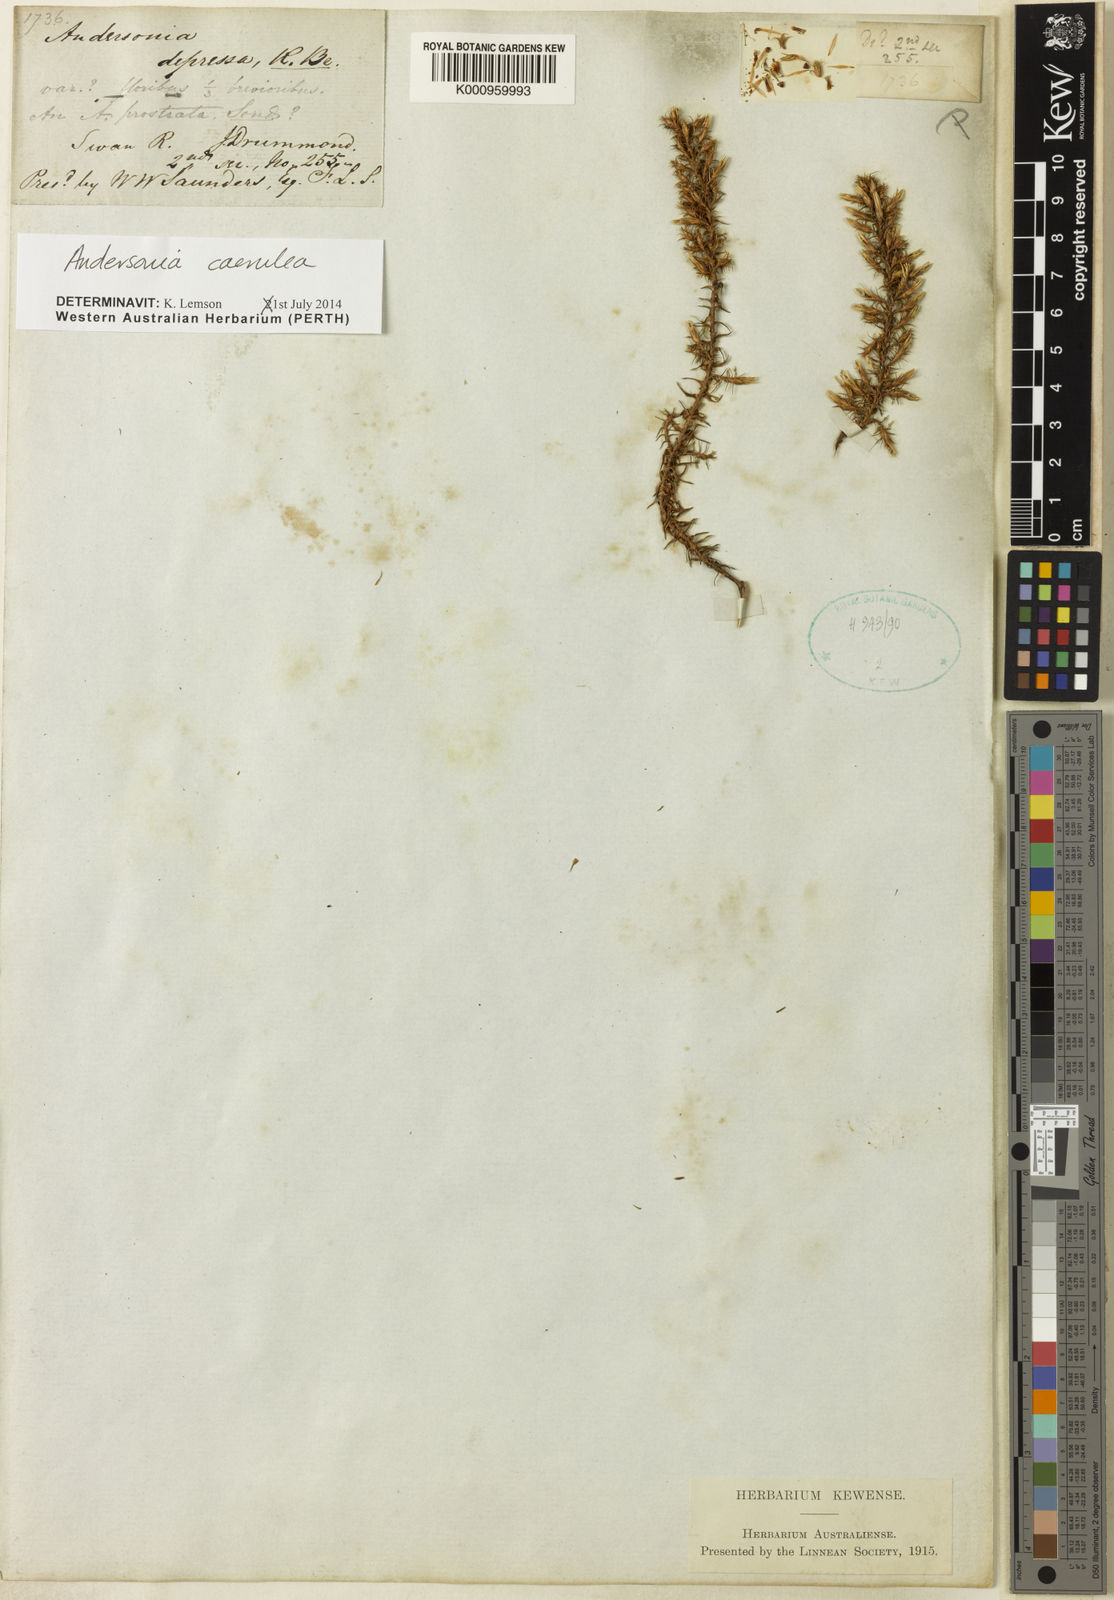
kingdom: Plantae
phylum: Tracheophyta
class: Magnoliopsida
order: Ericales
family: Ericaceae
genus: Andersonia
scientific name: Andersonia caerulea
